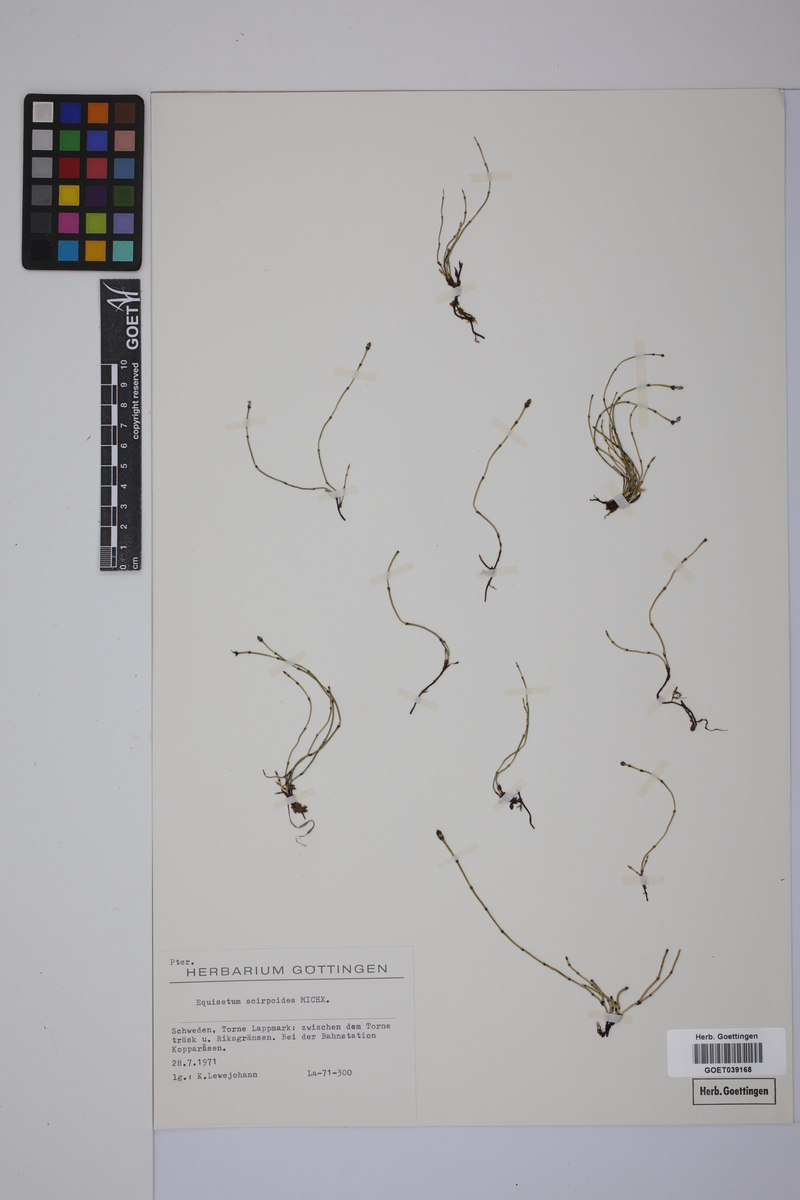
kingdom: Plantae
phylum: Tracheophyta
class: Polypodiopsida
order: Equisetales
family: Equisetaceae
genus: Equisetum
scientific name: Equisetum scirpoides
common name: Delicate horsetail
